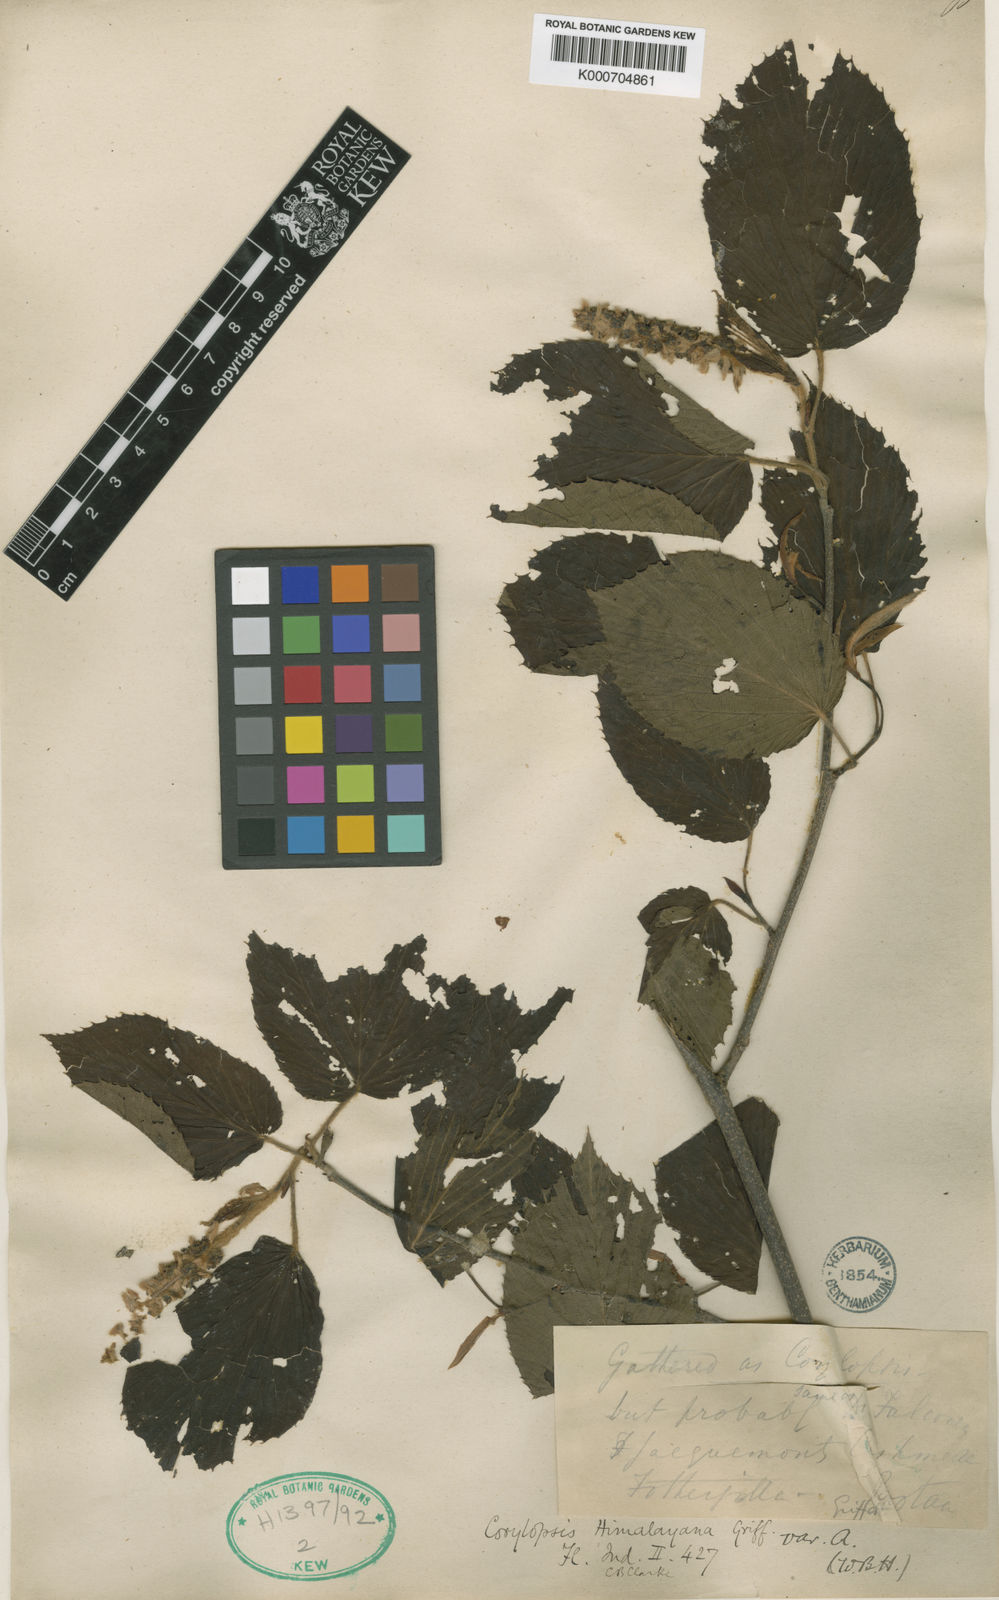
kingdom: Plantae
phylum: Tracheophyta
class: Magnoliopsida
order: Saxifragales
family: Hamamelidaceae
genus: Corylopsis
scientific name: Corylopsis himalayana
